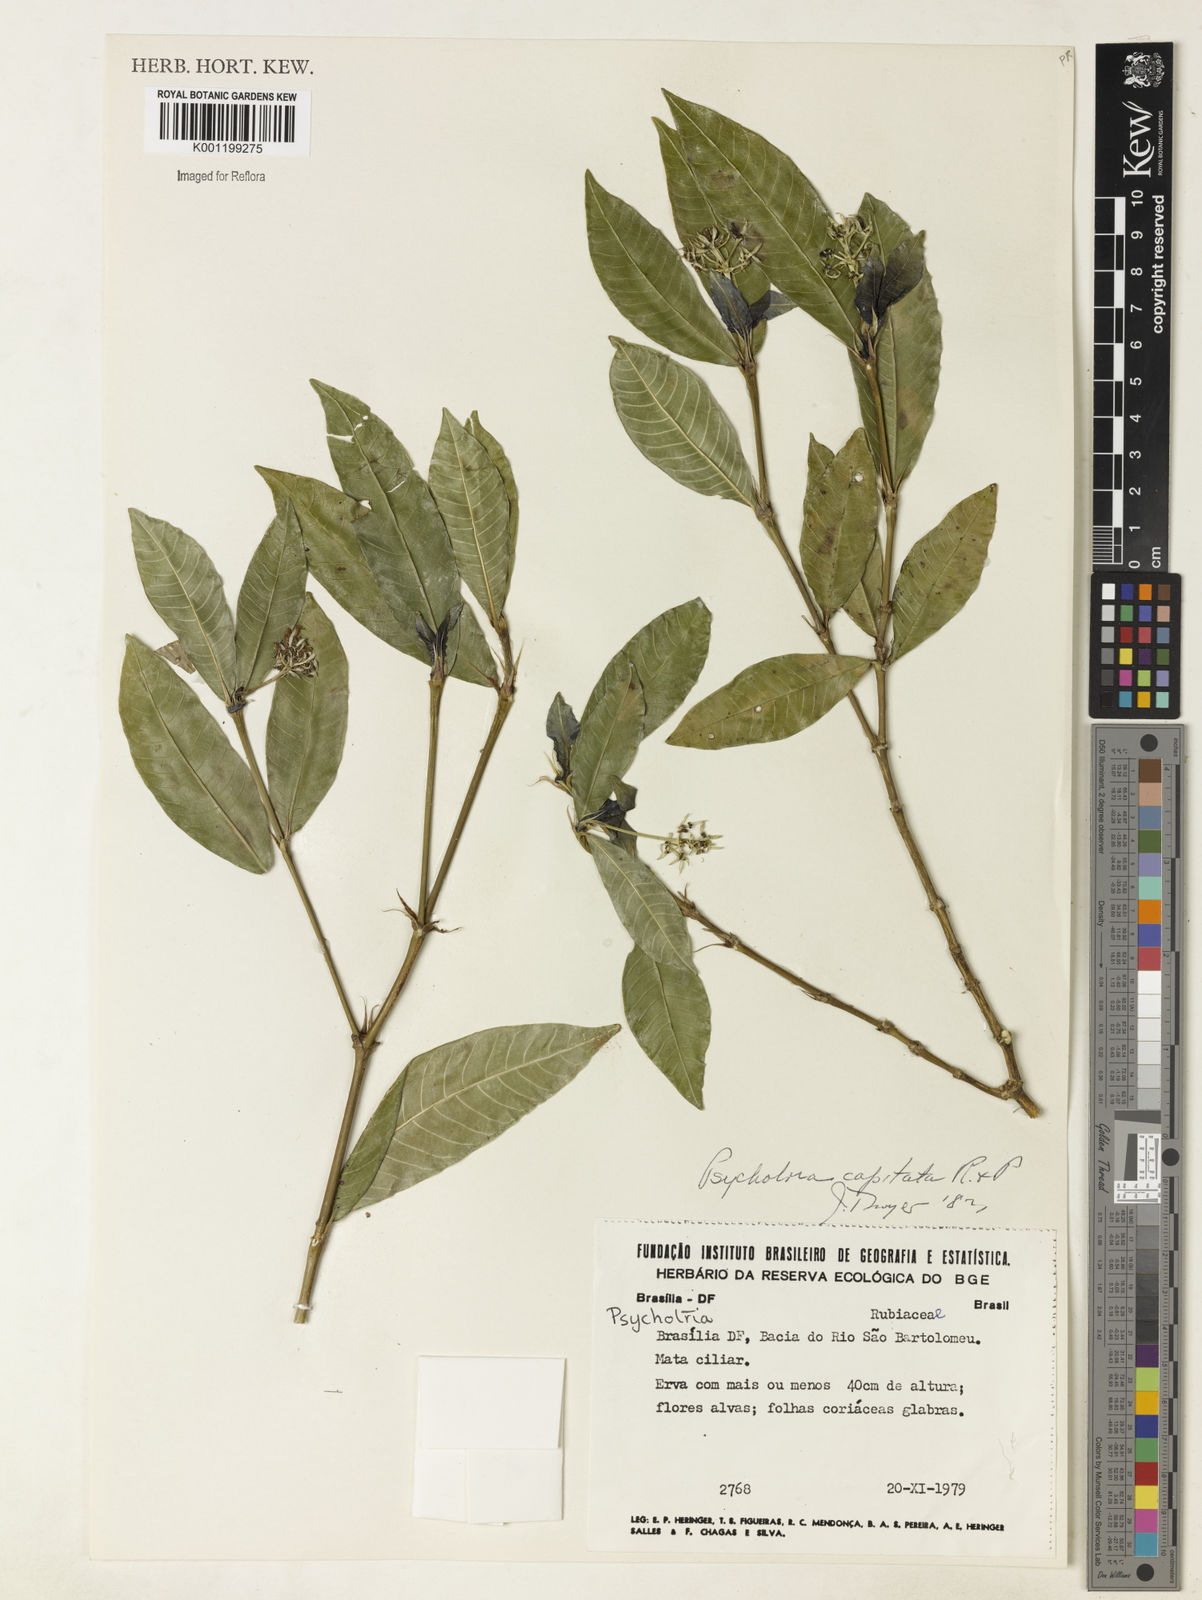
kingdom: Plantae
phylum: Tracheophyta
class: Magnoliopsida
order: Gentianales
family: Rubiaceae
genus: Palicourea
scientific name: Palicourea violacea
